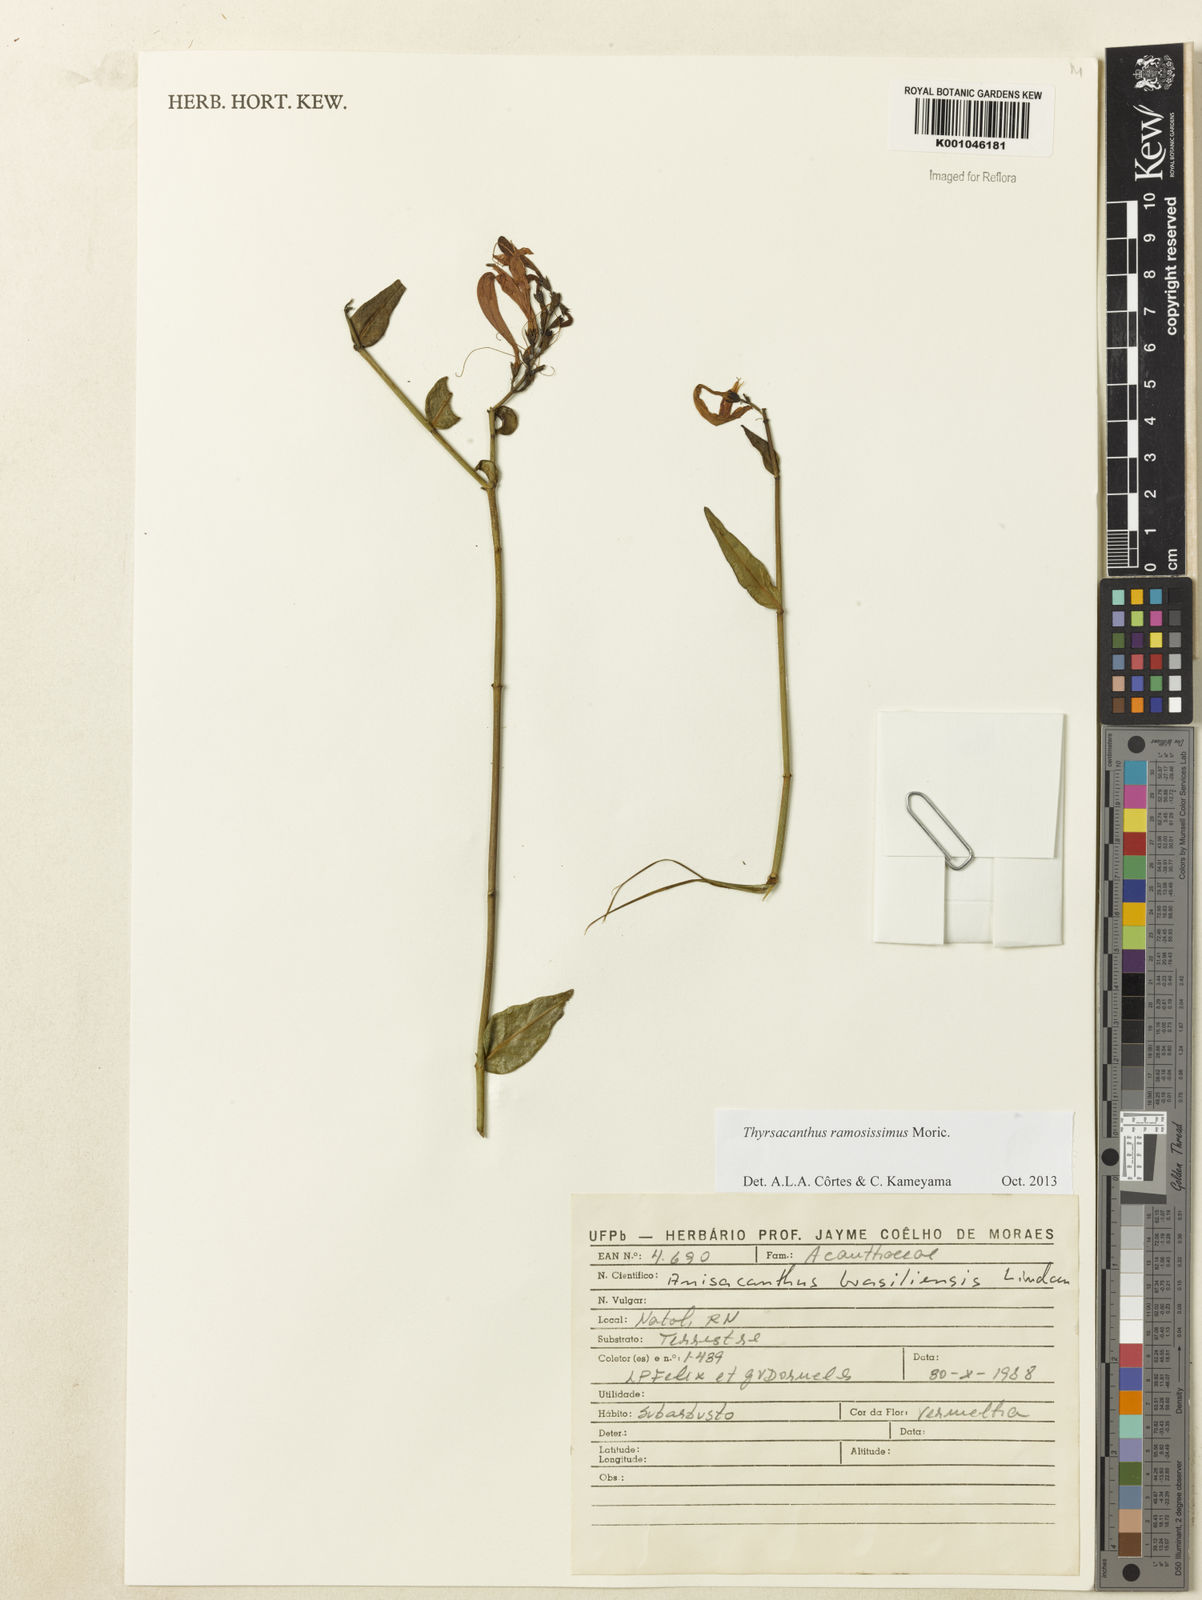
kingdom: Plantae
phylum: Tracheophyta
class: Magnoliopsida
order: Lamiales
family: Acanthaceae
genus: Thyrsacanthus
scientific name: Thyrsacanthus ramosissimus
